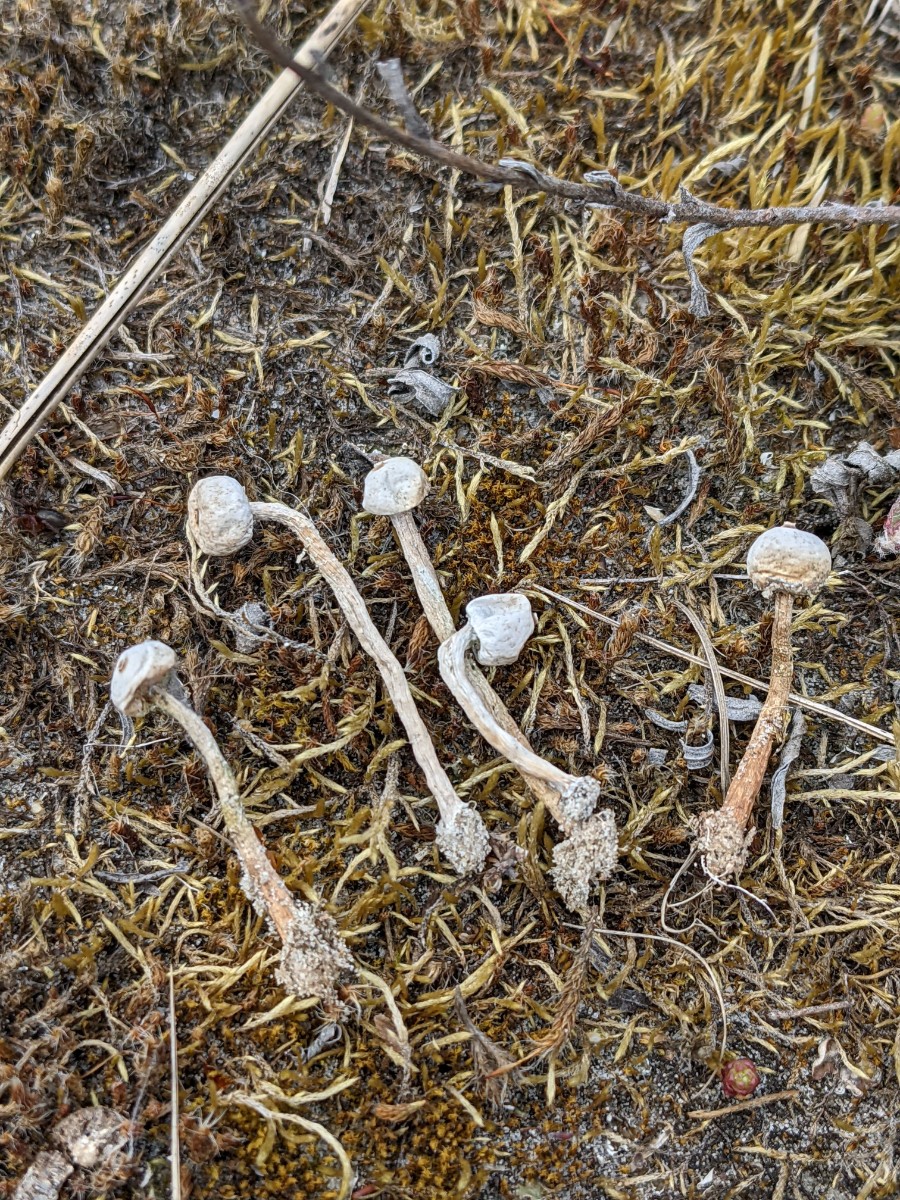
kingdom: Fungi
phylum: Basidiomycota
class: Agaricomycetes
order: Agaricales
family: Agaricaceae
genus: Tulostoma
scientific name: Tulostoma brumale
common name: vinter-stilkbovist
